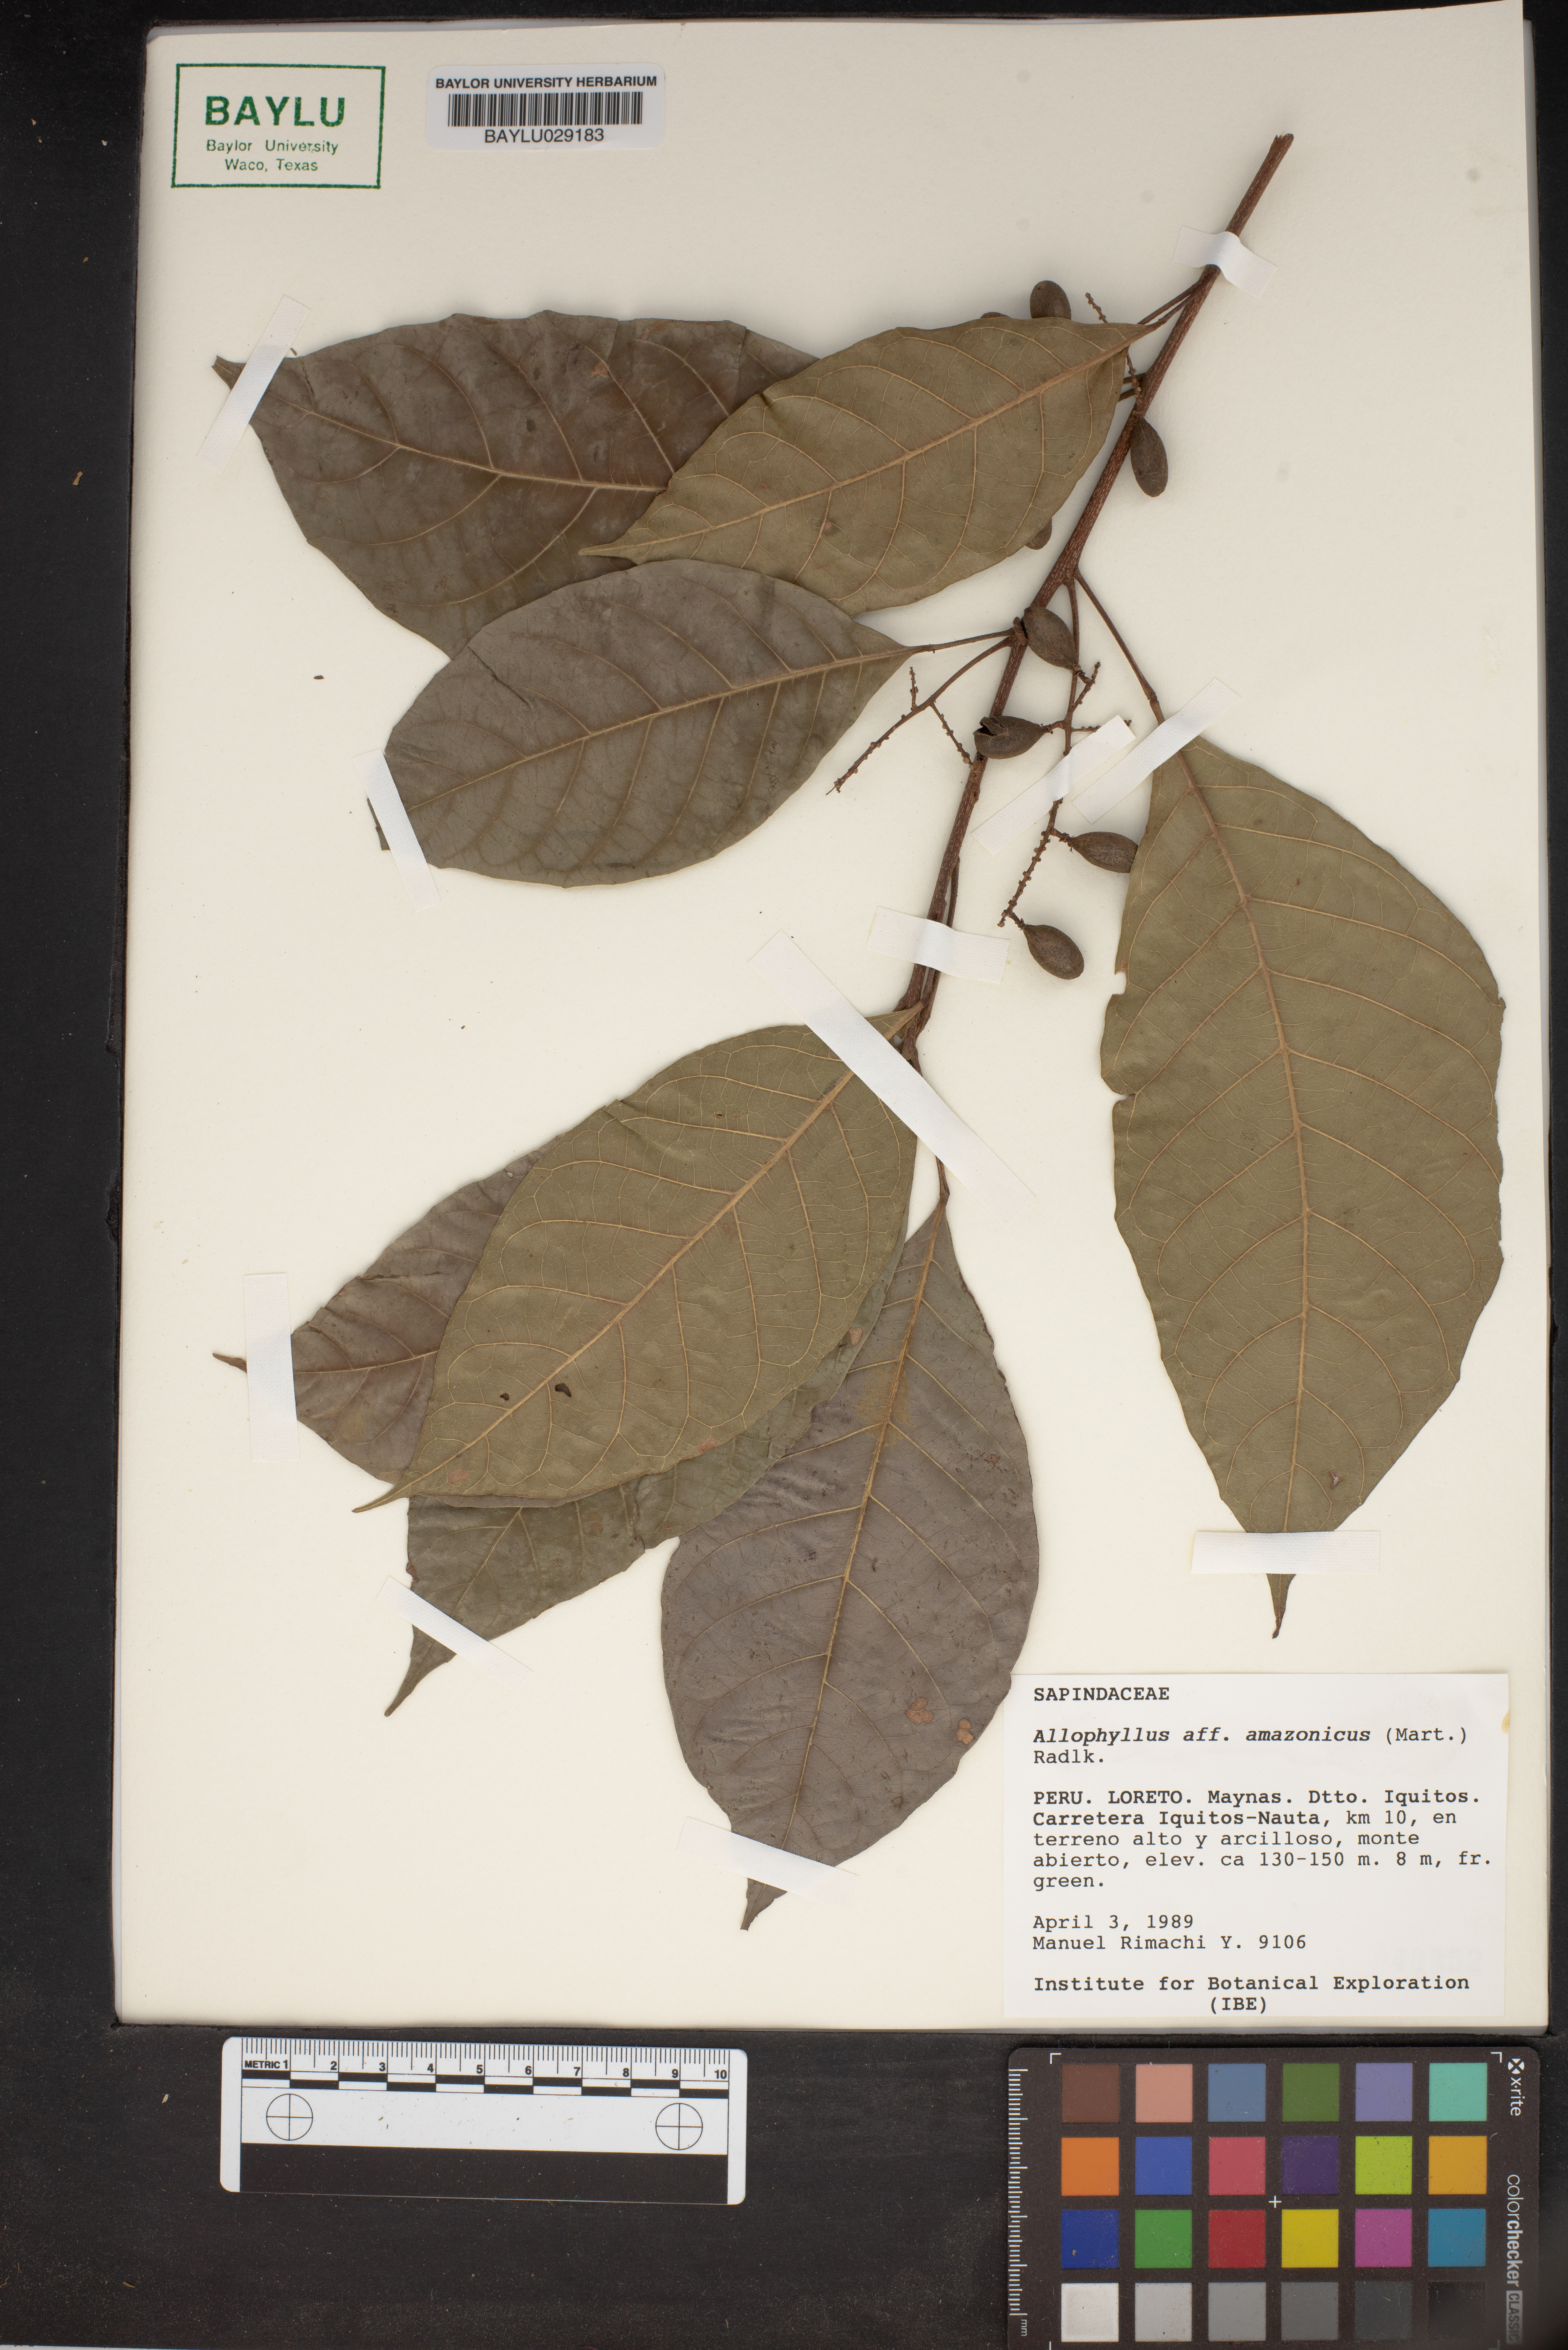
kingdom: Plantae
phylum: Tracheophyta
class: Magnoliopsida
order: Sapindales
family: Sapindaceae
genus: Allophylus
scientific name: Allophylus amazonicus
